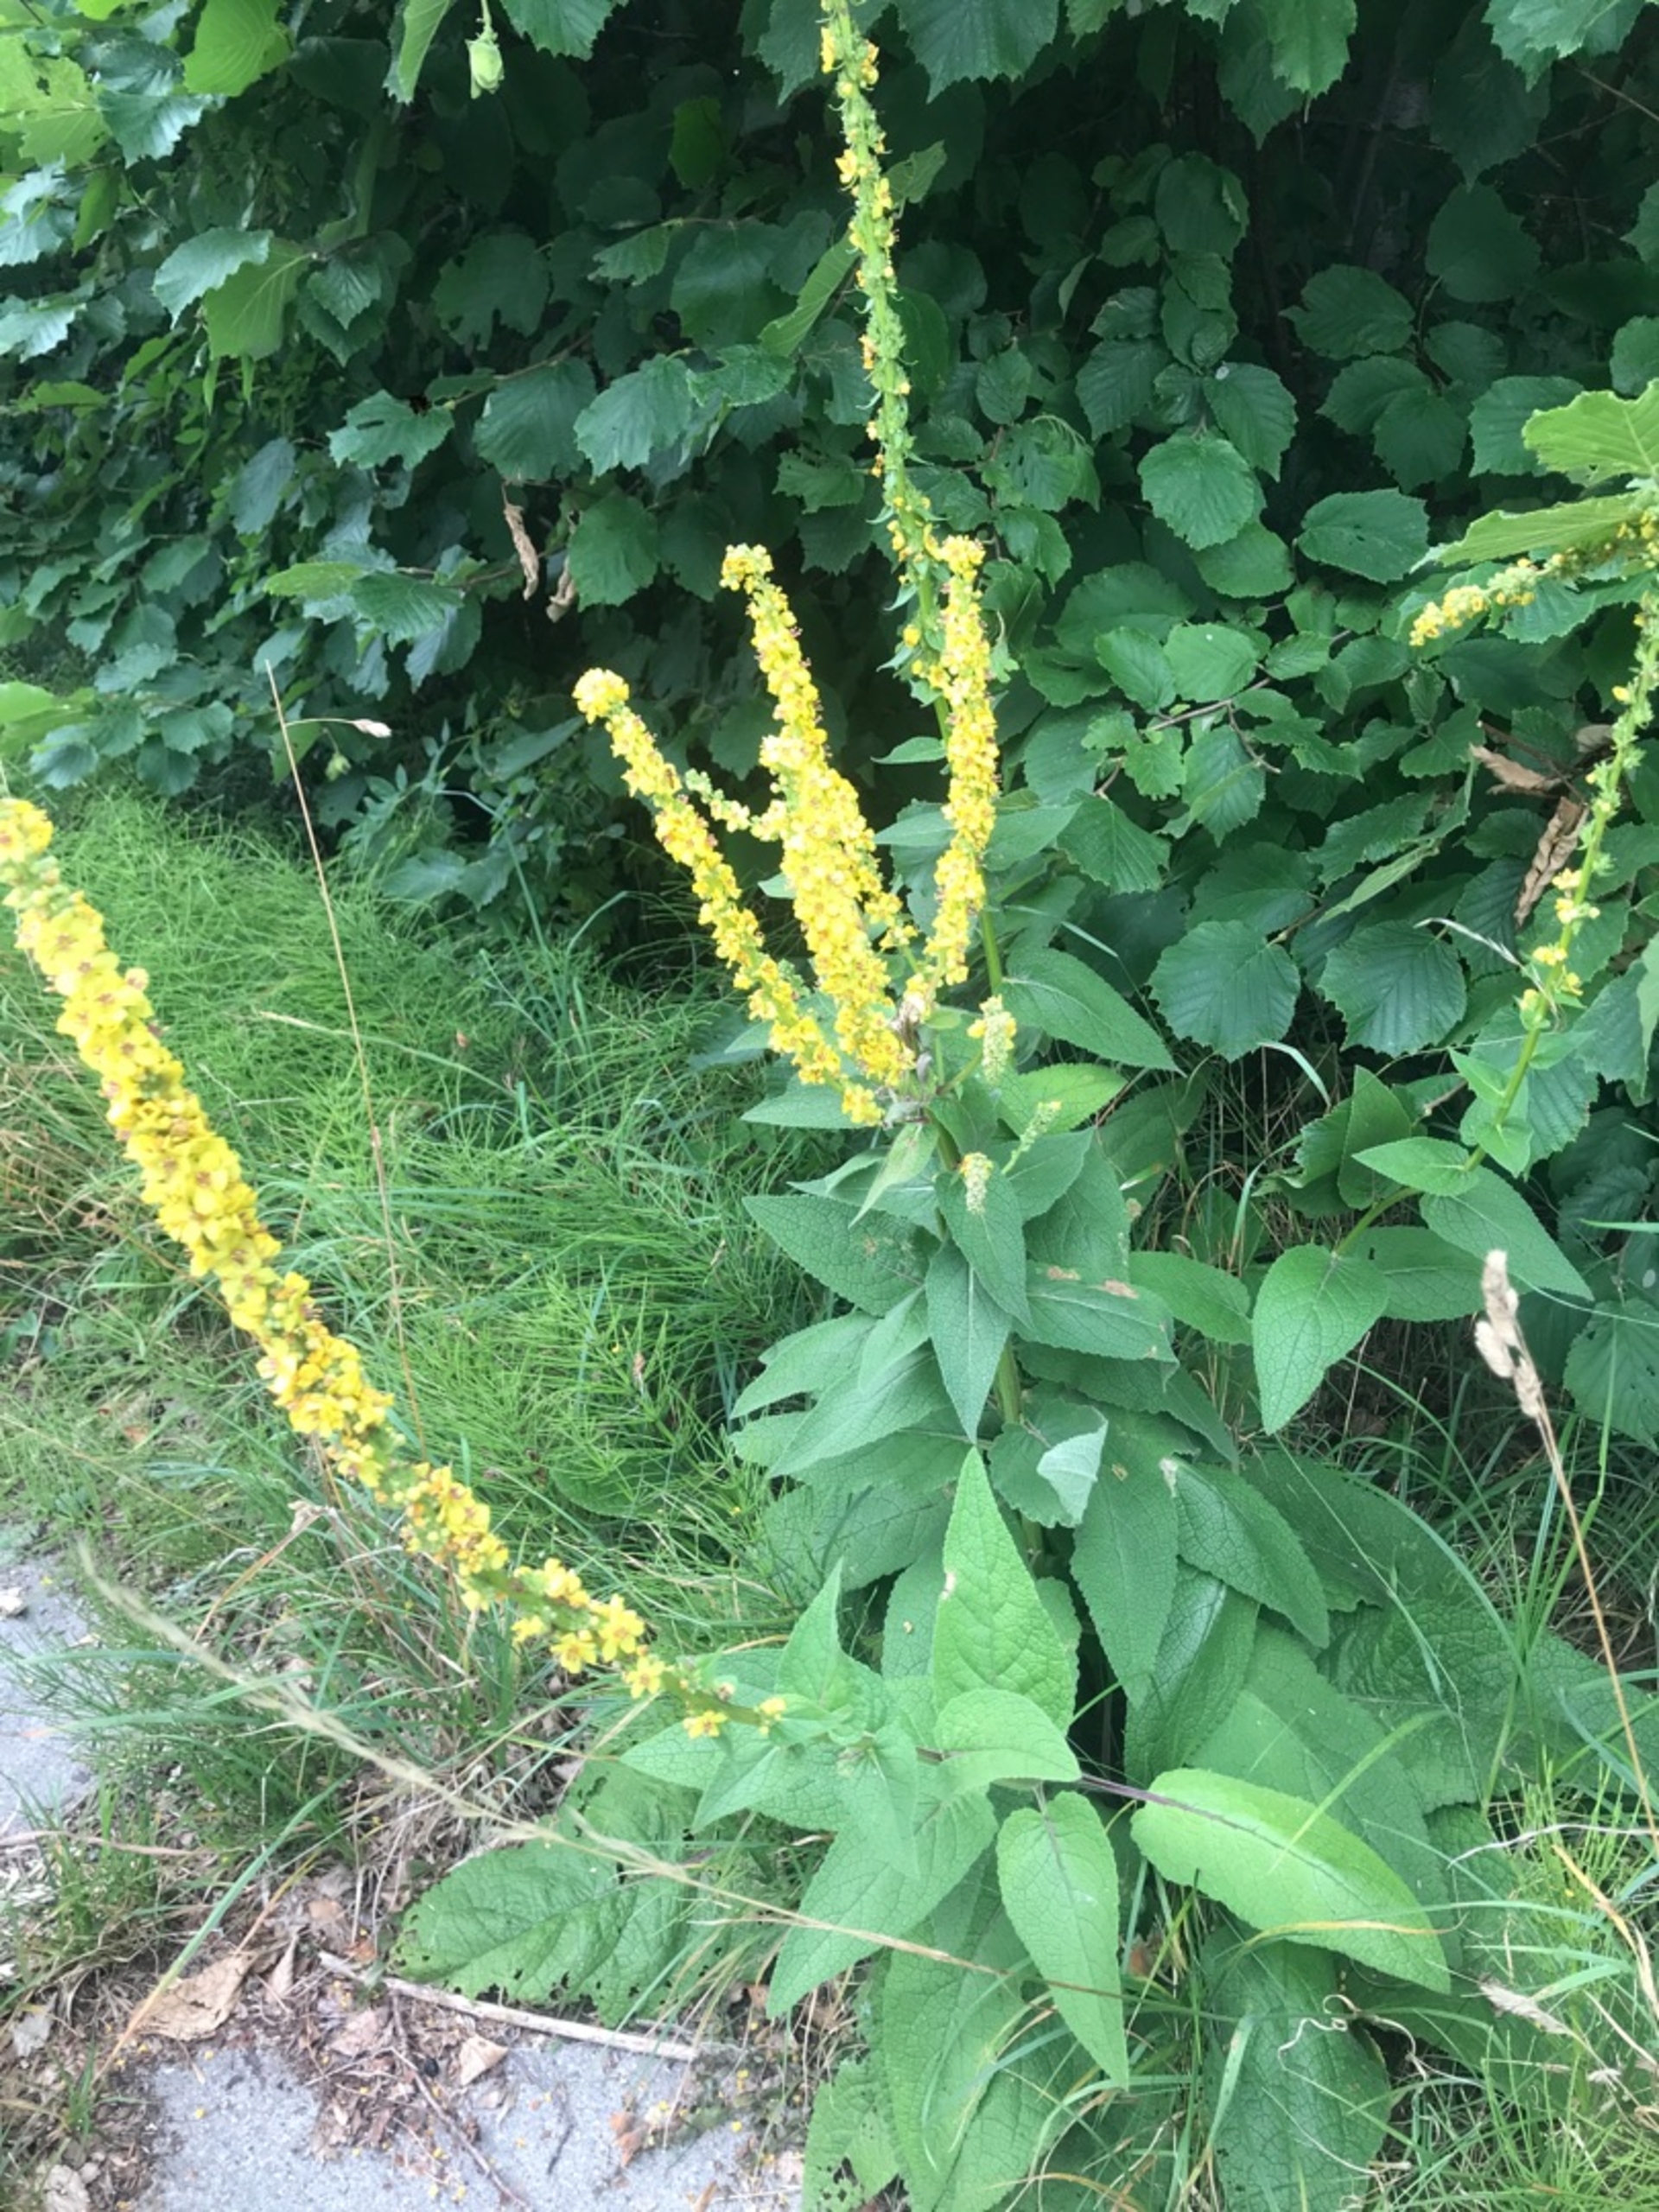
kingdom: Plantae
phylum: Tracheophyta
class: Magnoliopsida
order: Lamiales
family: Scrophulariaceae
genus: Verbascum
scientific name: Verbascum nigrum
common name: Mørk kongelys
